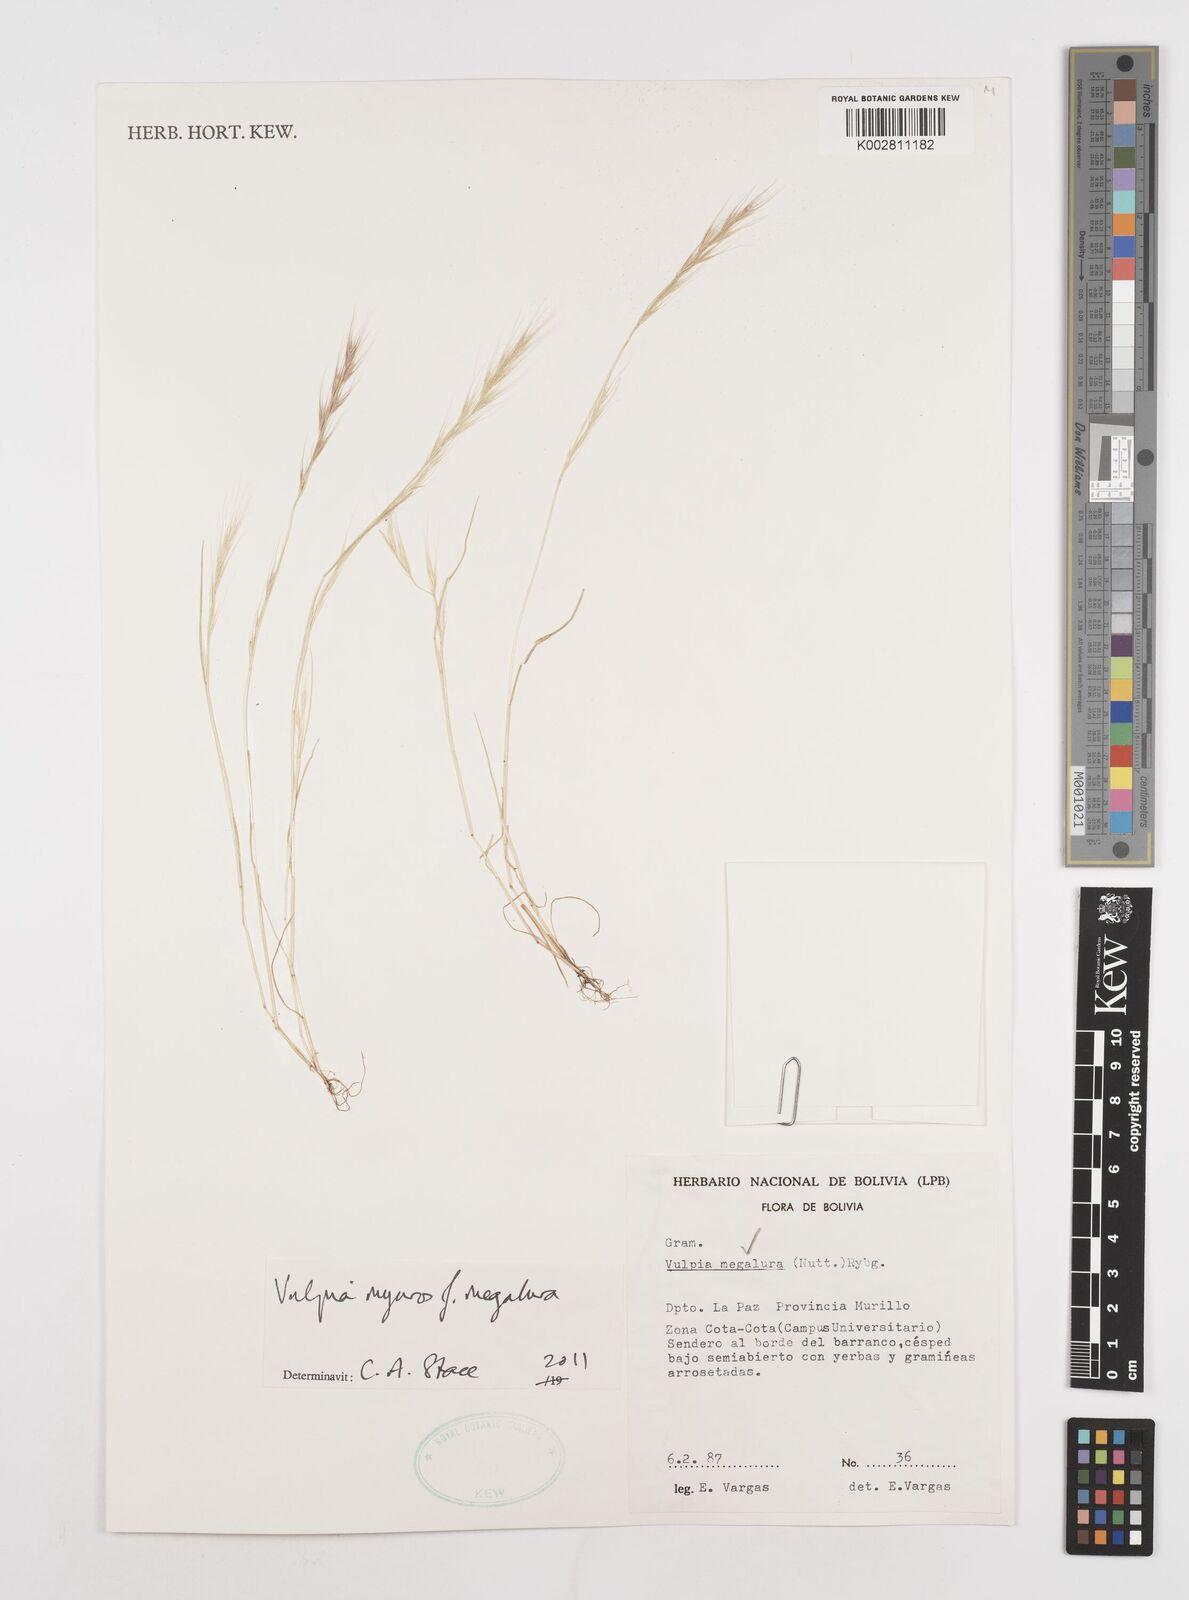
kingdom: Plantae
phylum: Tracheophyta
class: Liliopsida
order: Poales
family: Poaceae
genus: Festuca
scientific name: Festuca myuros
